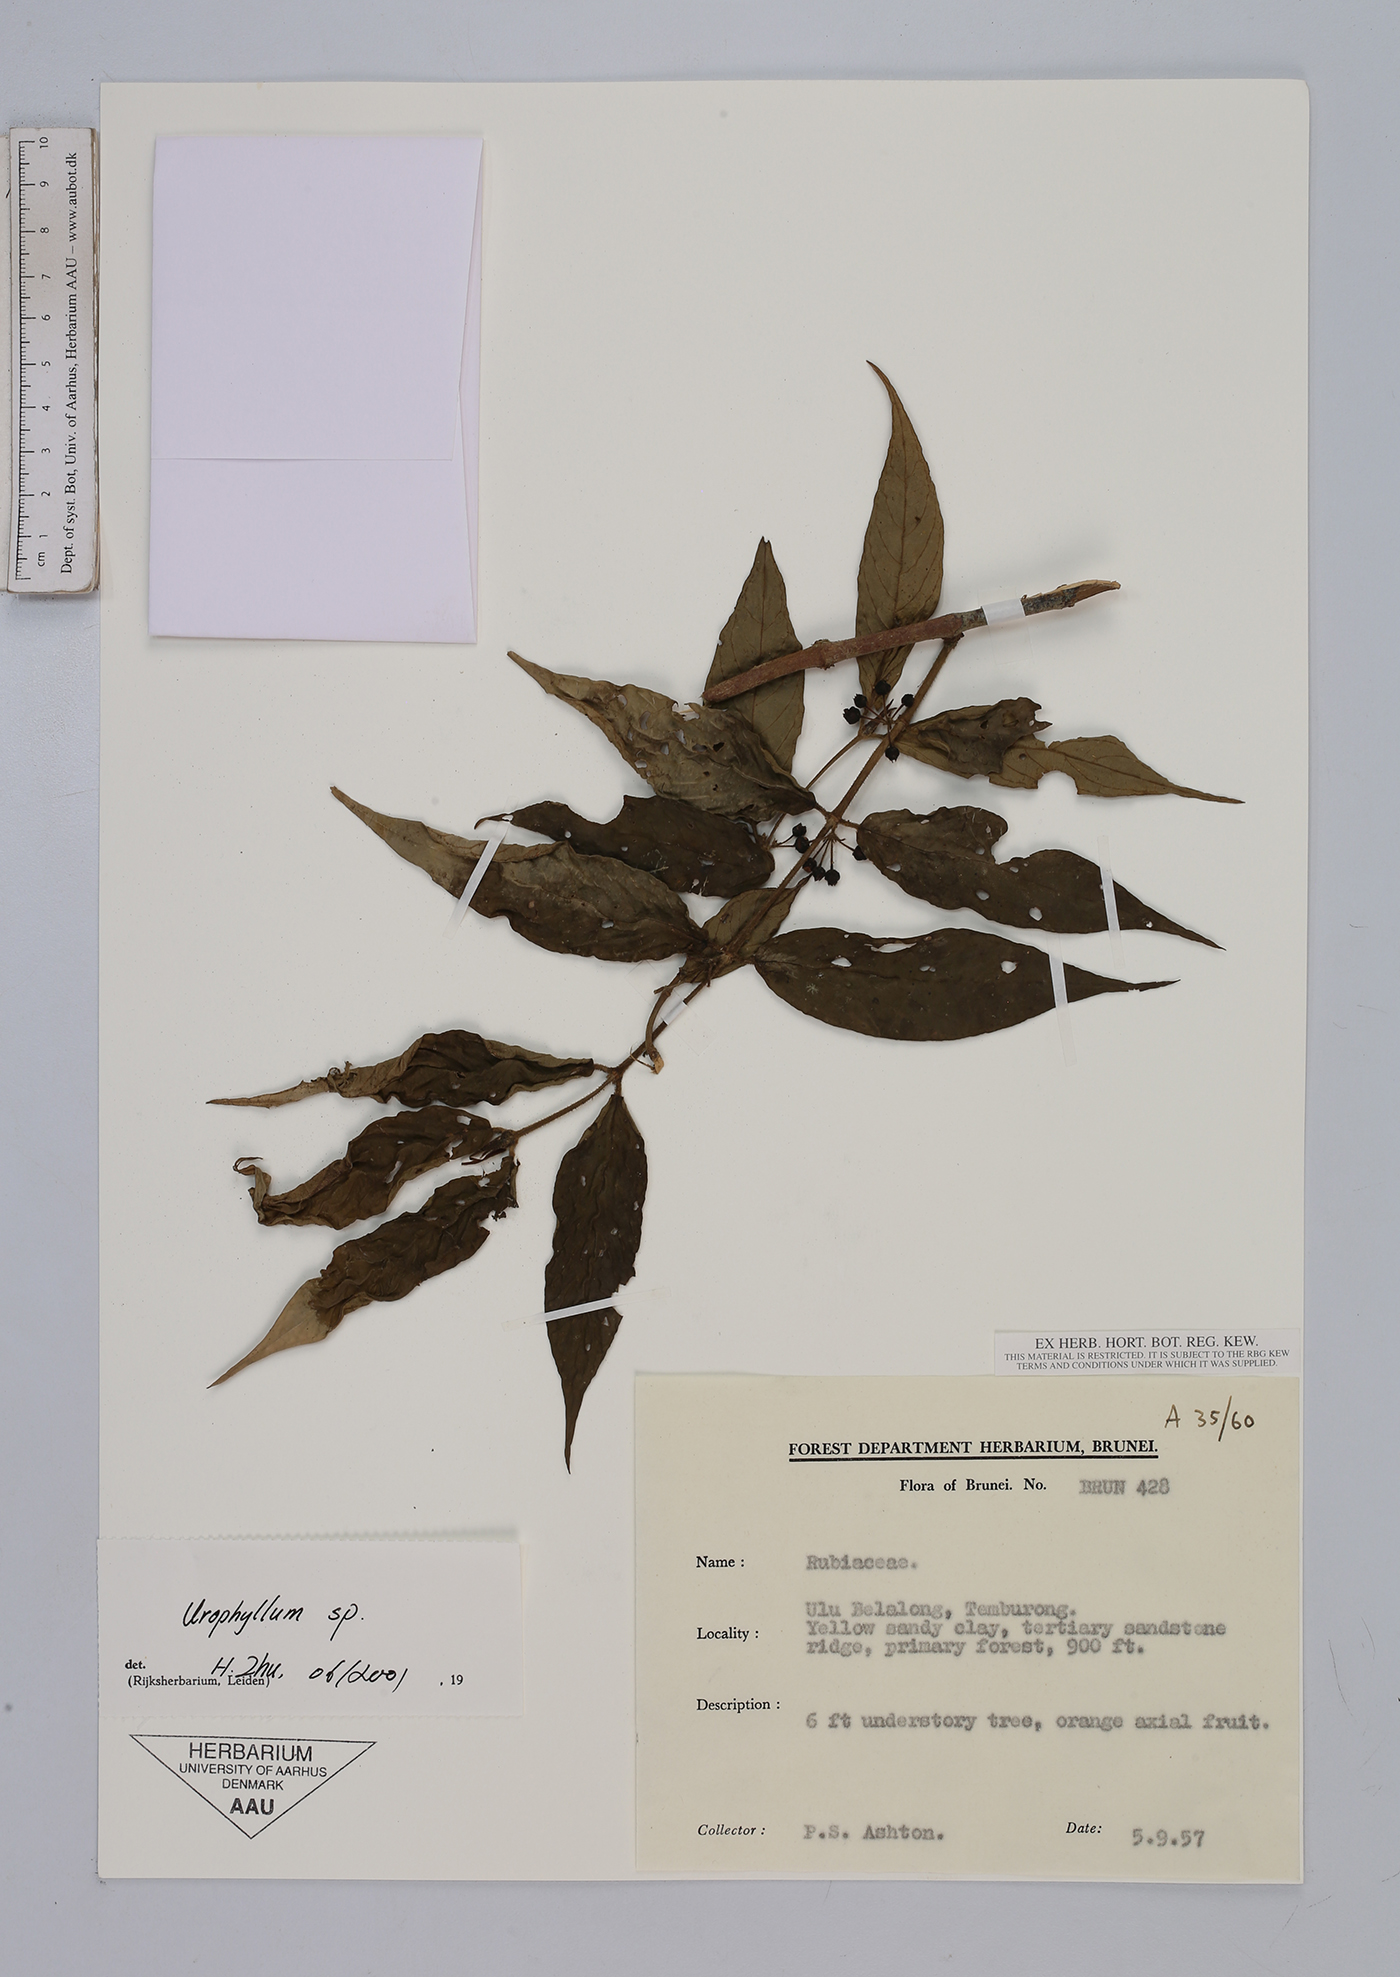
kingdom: Plantae
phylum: Tracheophyta
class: Magnoliopsida
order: Gentianales
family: Rubiaceae
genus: Urophyllum
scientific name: Urophyllum
